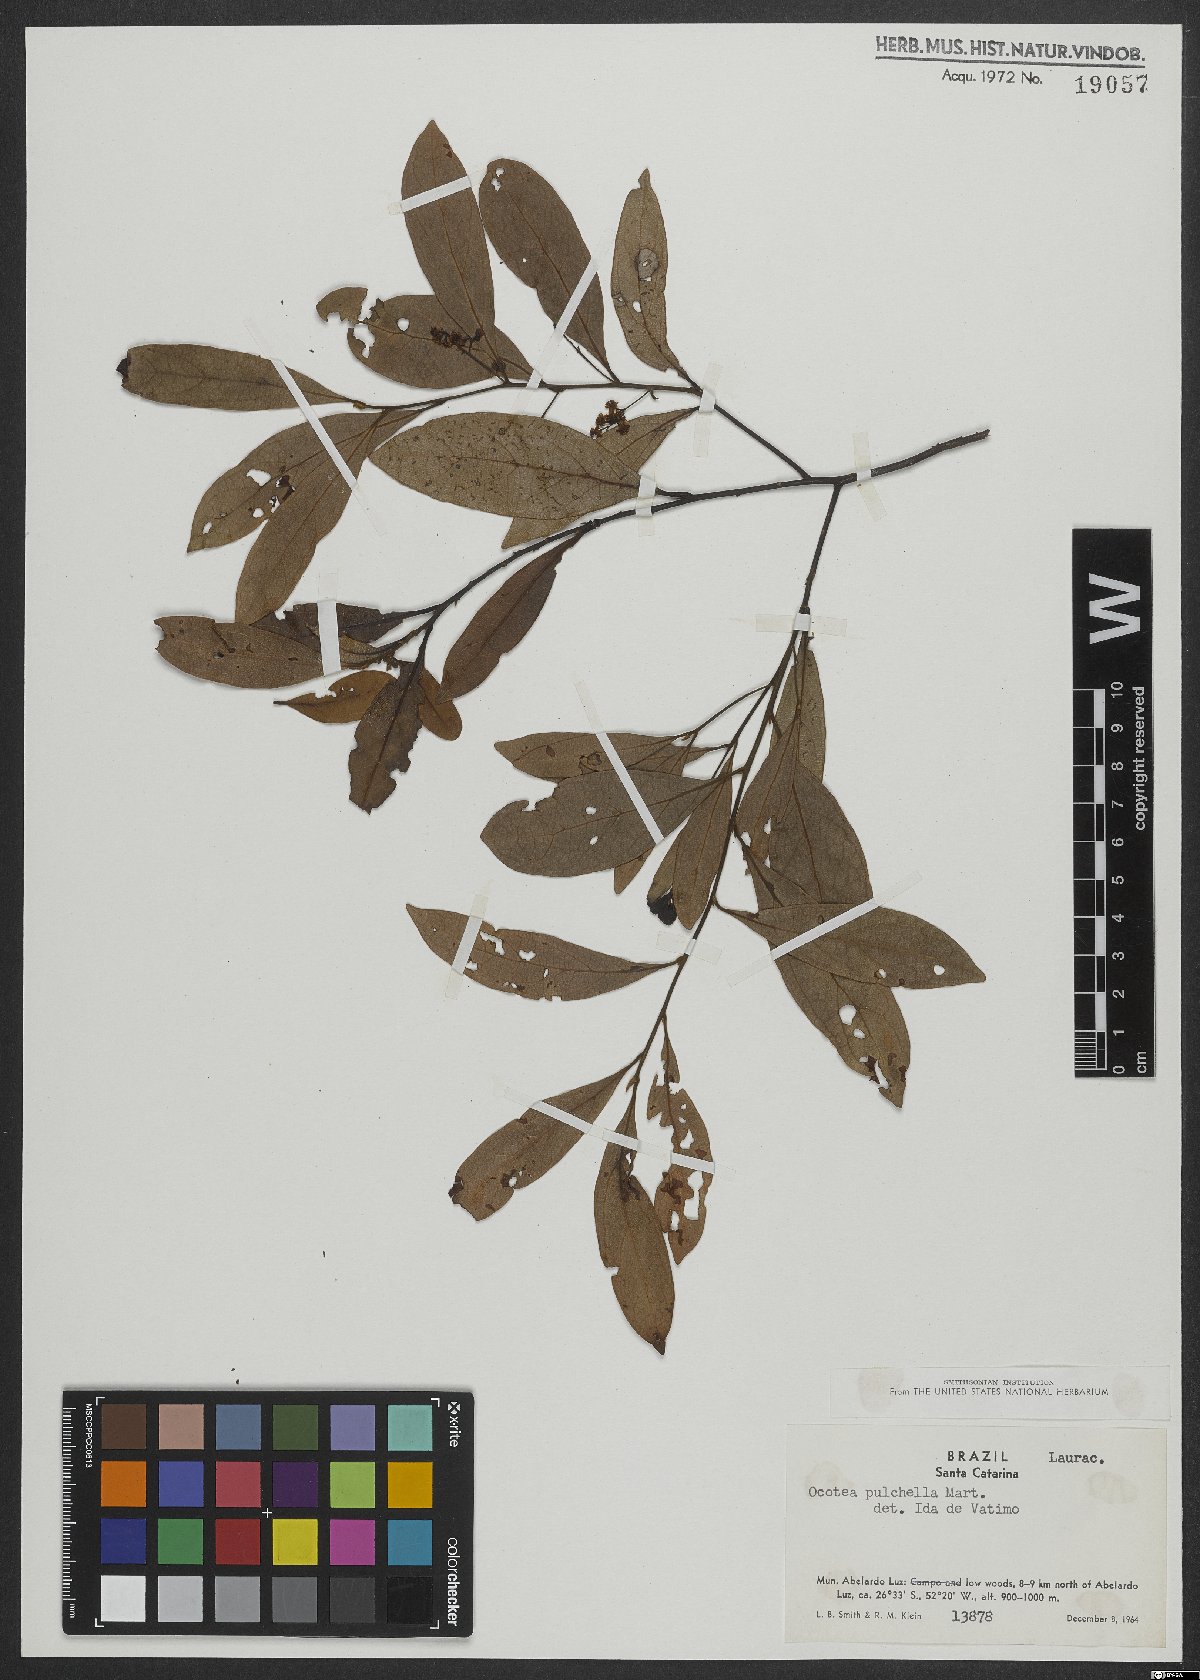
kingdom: Plantae
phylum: Tracheophyta
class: Magnoliopsida
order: Laurales
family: Lauraceae
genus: Mespilodaphne
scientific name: Mespilodaphne pulchella
